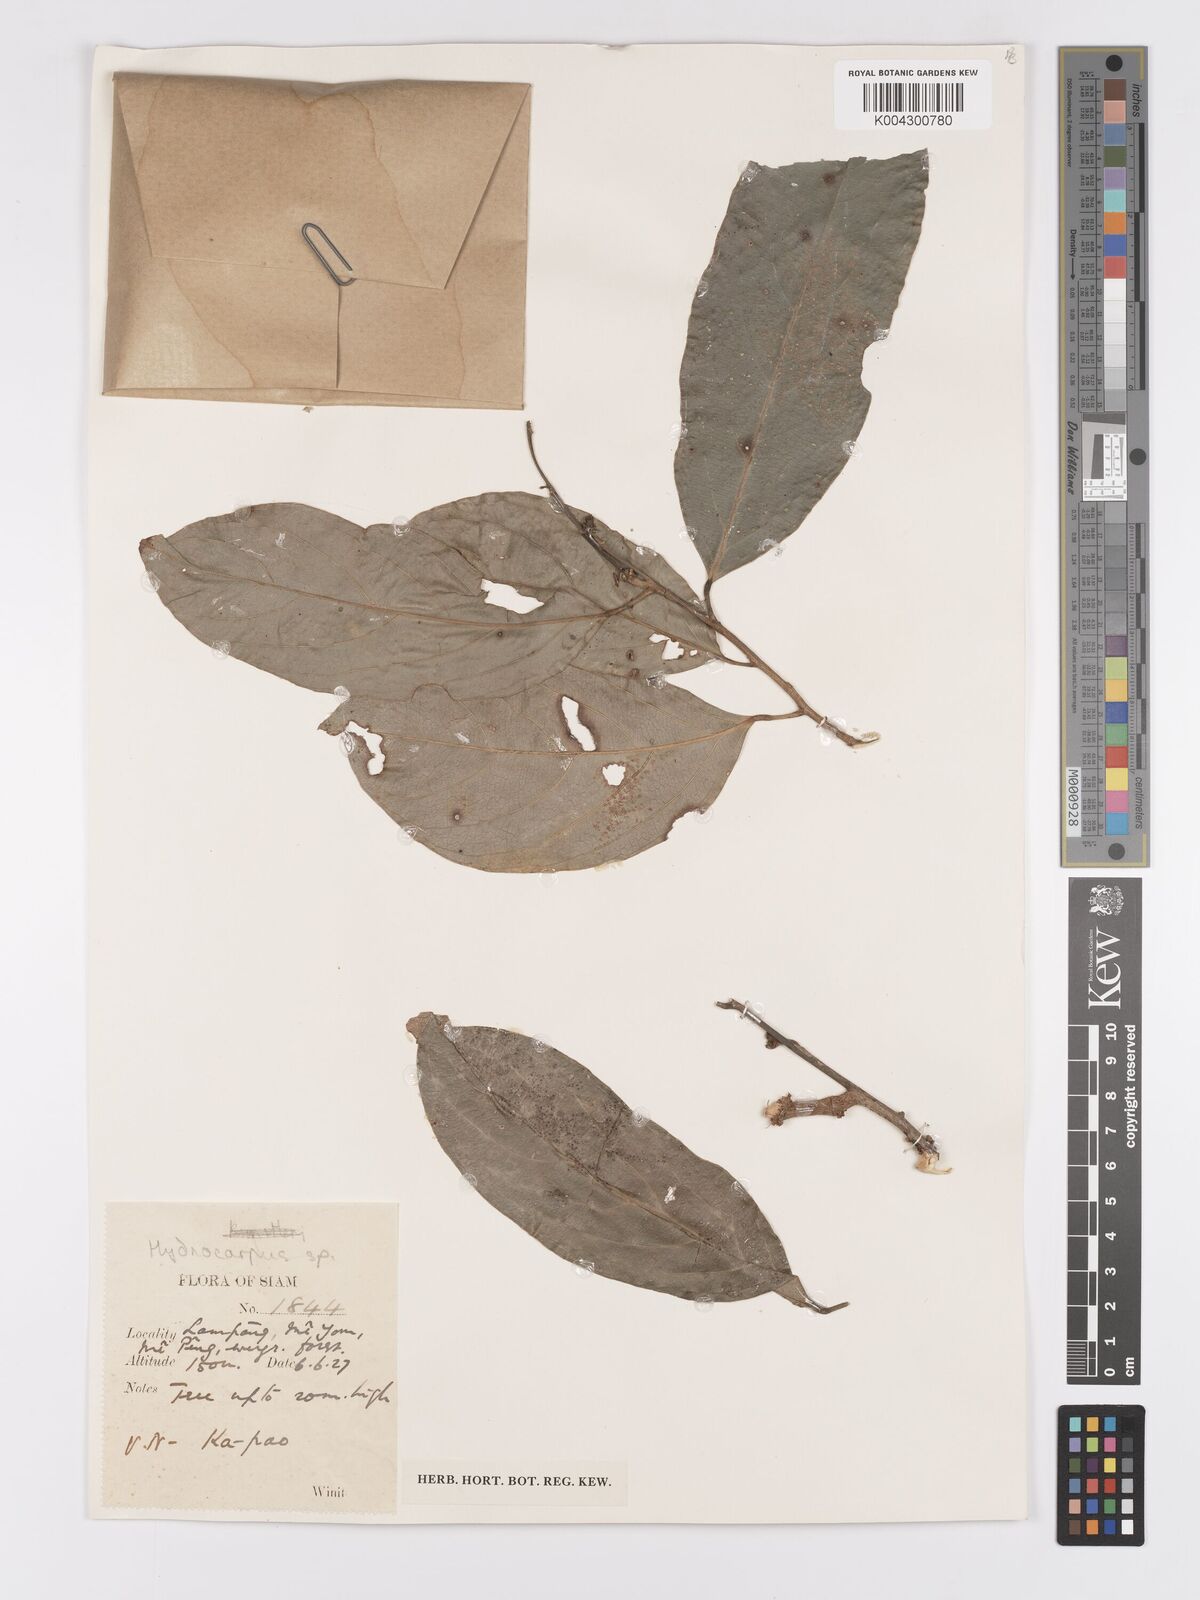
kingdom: Plantae
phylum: Tracheophyta
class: Magnoliopsida
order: Malpighiales
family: Achariaceae
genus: Hydnocarpus
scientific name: Hydnocarpus
